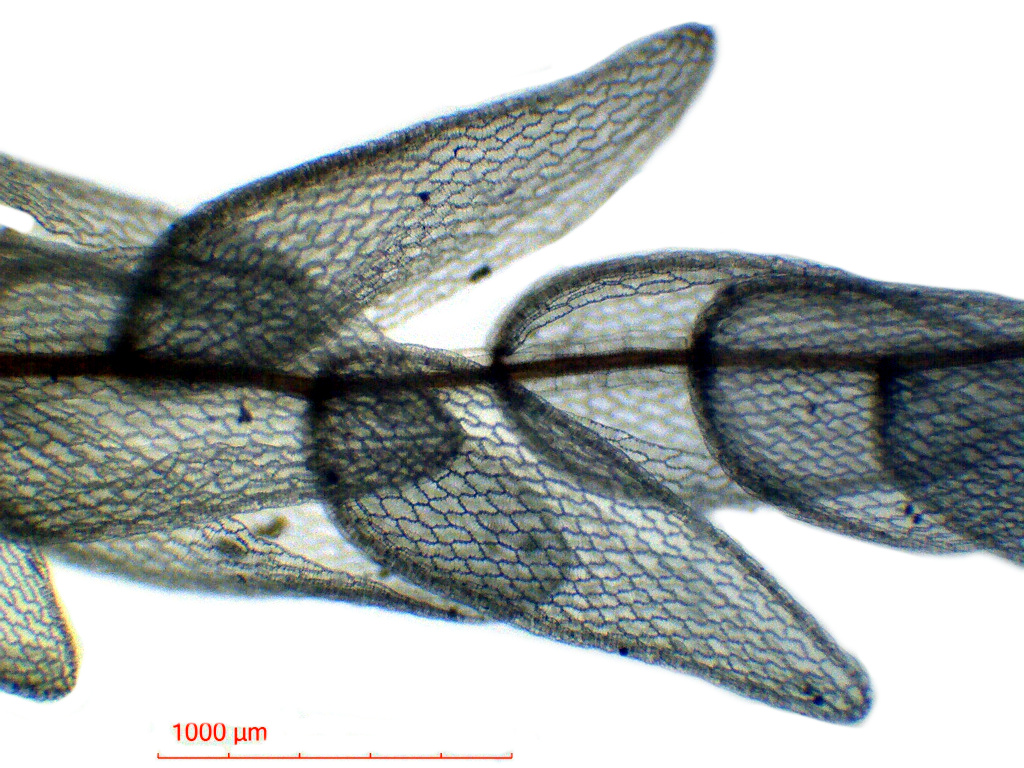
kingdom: Plantae
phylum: Bryophyta
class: Sphagnopsida
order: Sphagnales
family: Sphagnaceae
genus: Sphagnum
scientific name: Sphagnum cuspidatum
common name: Feathery peat moss
